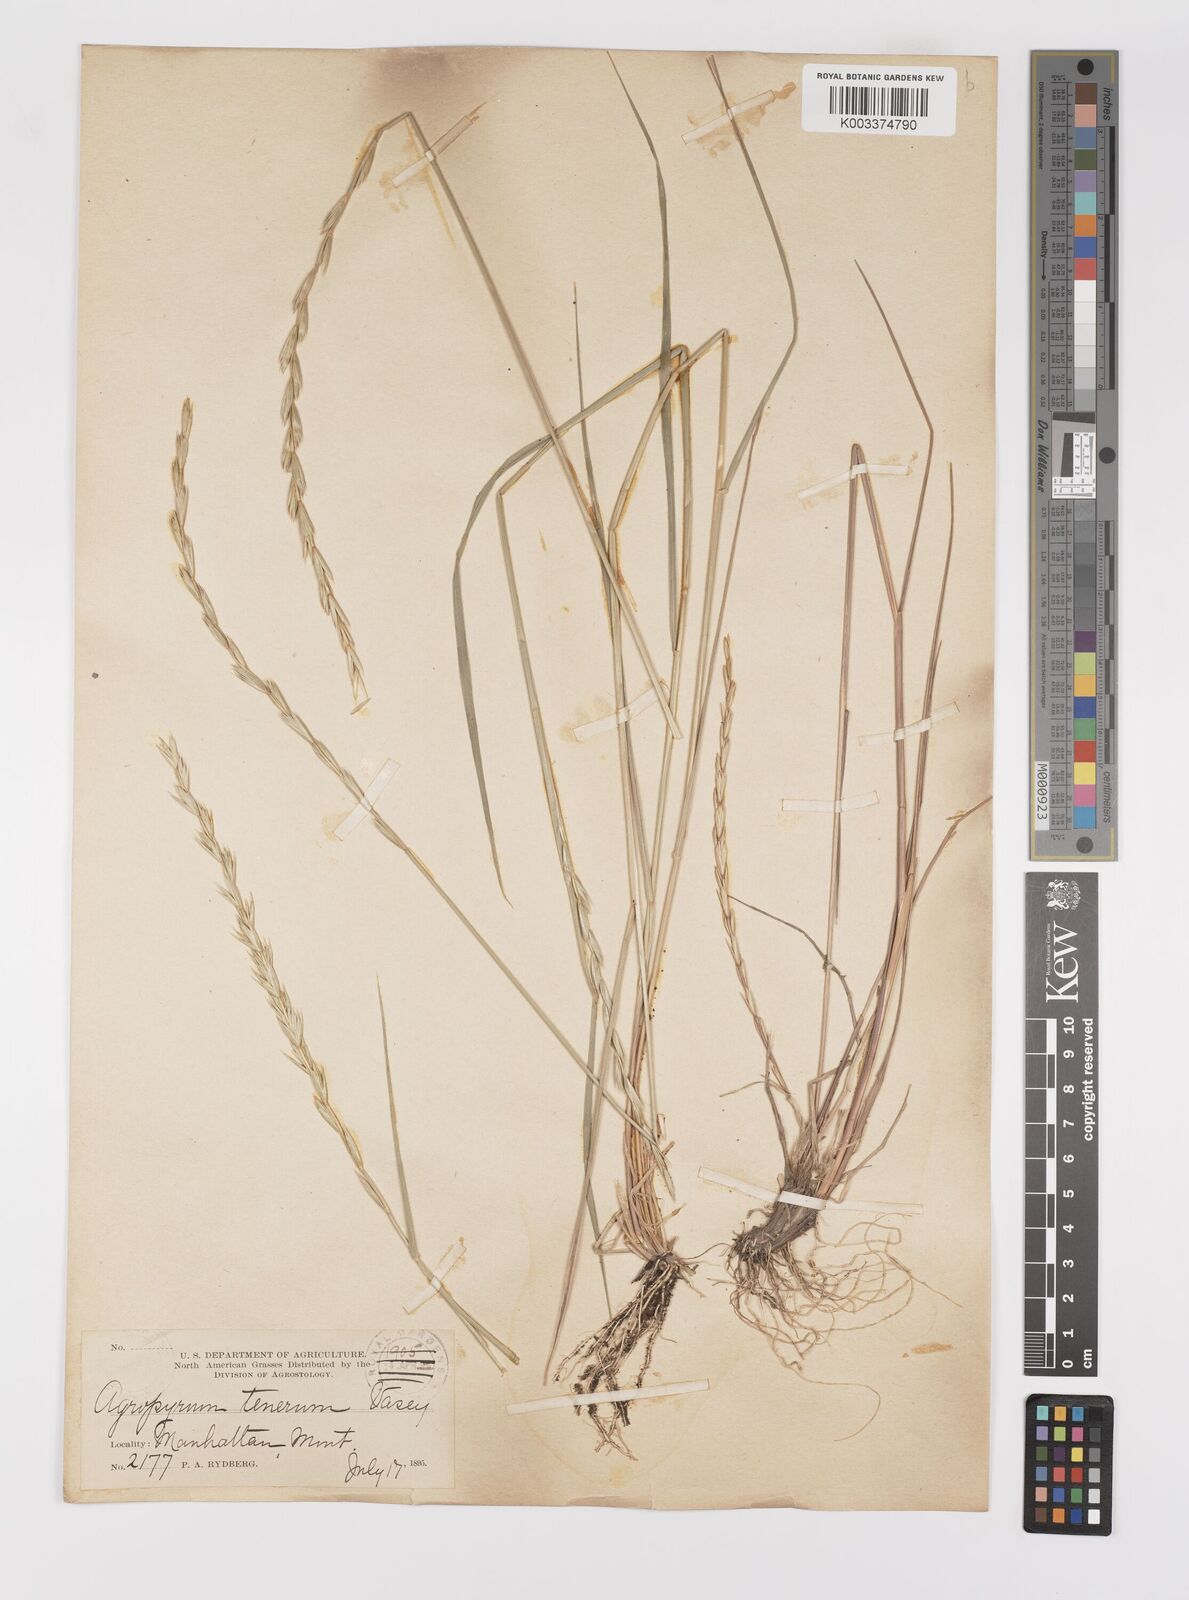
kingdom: Plantae
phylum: Tracheophyta
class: Liliopsida
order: Poales
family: Poaceae
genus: Elymus
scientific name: Elymus violaceus
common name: Arctic wheatgrass
